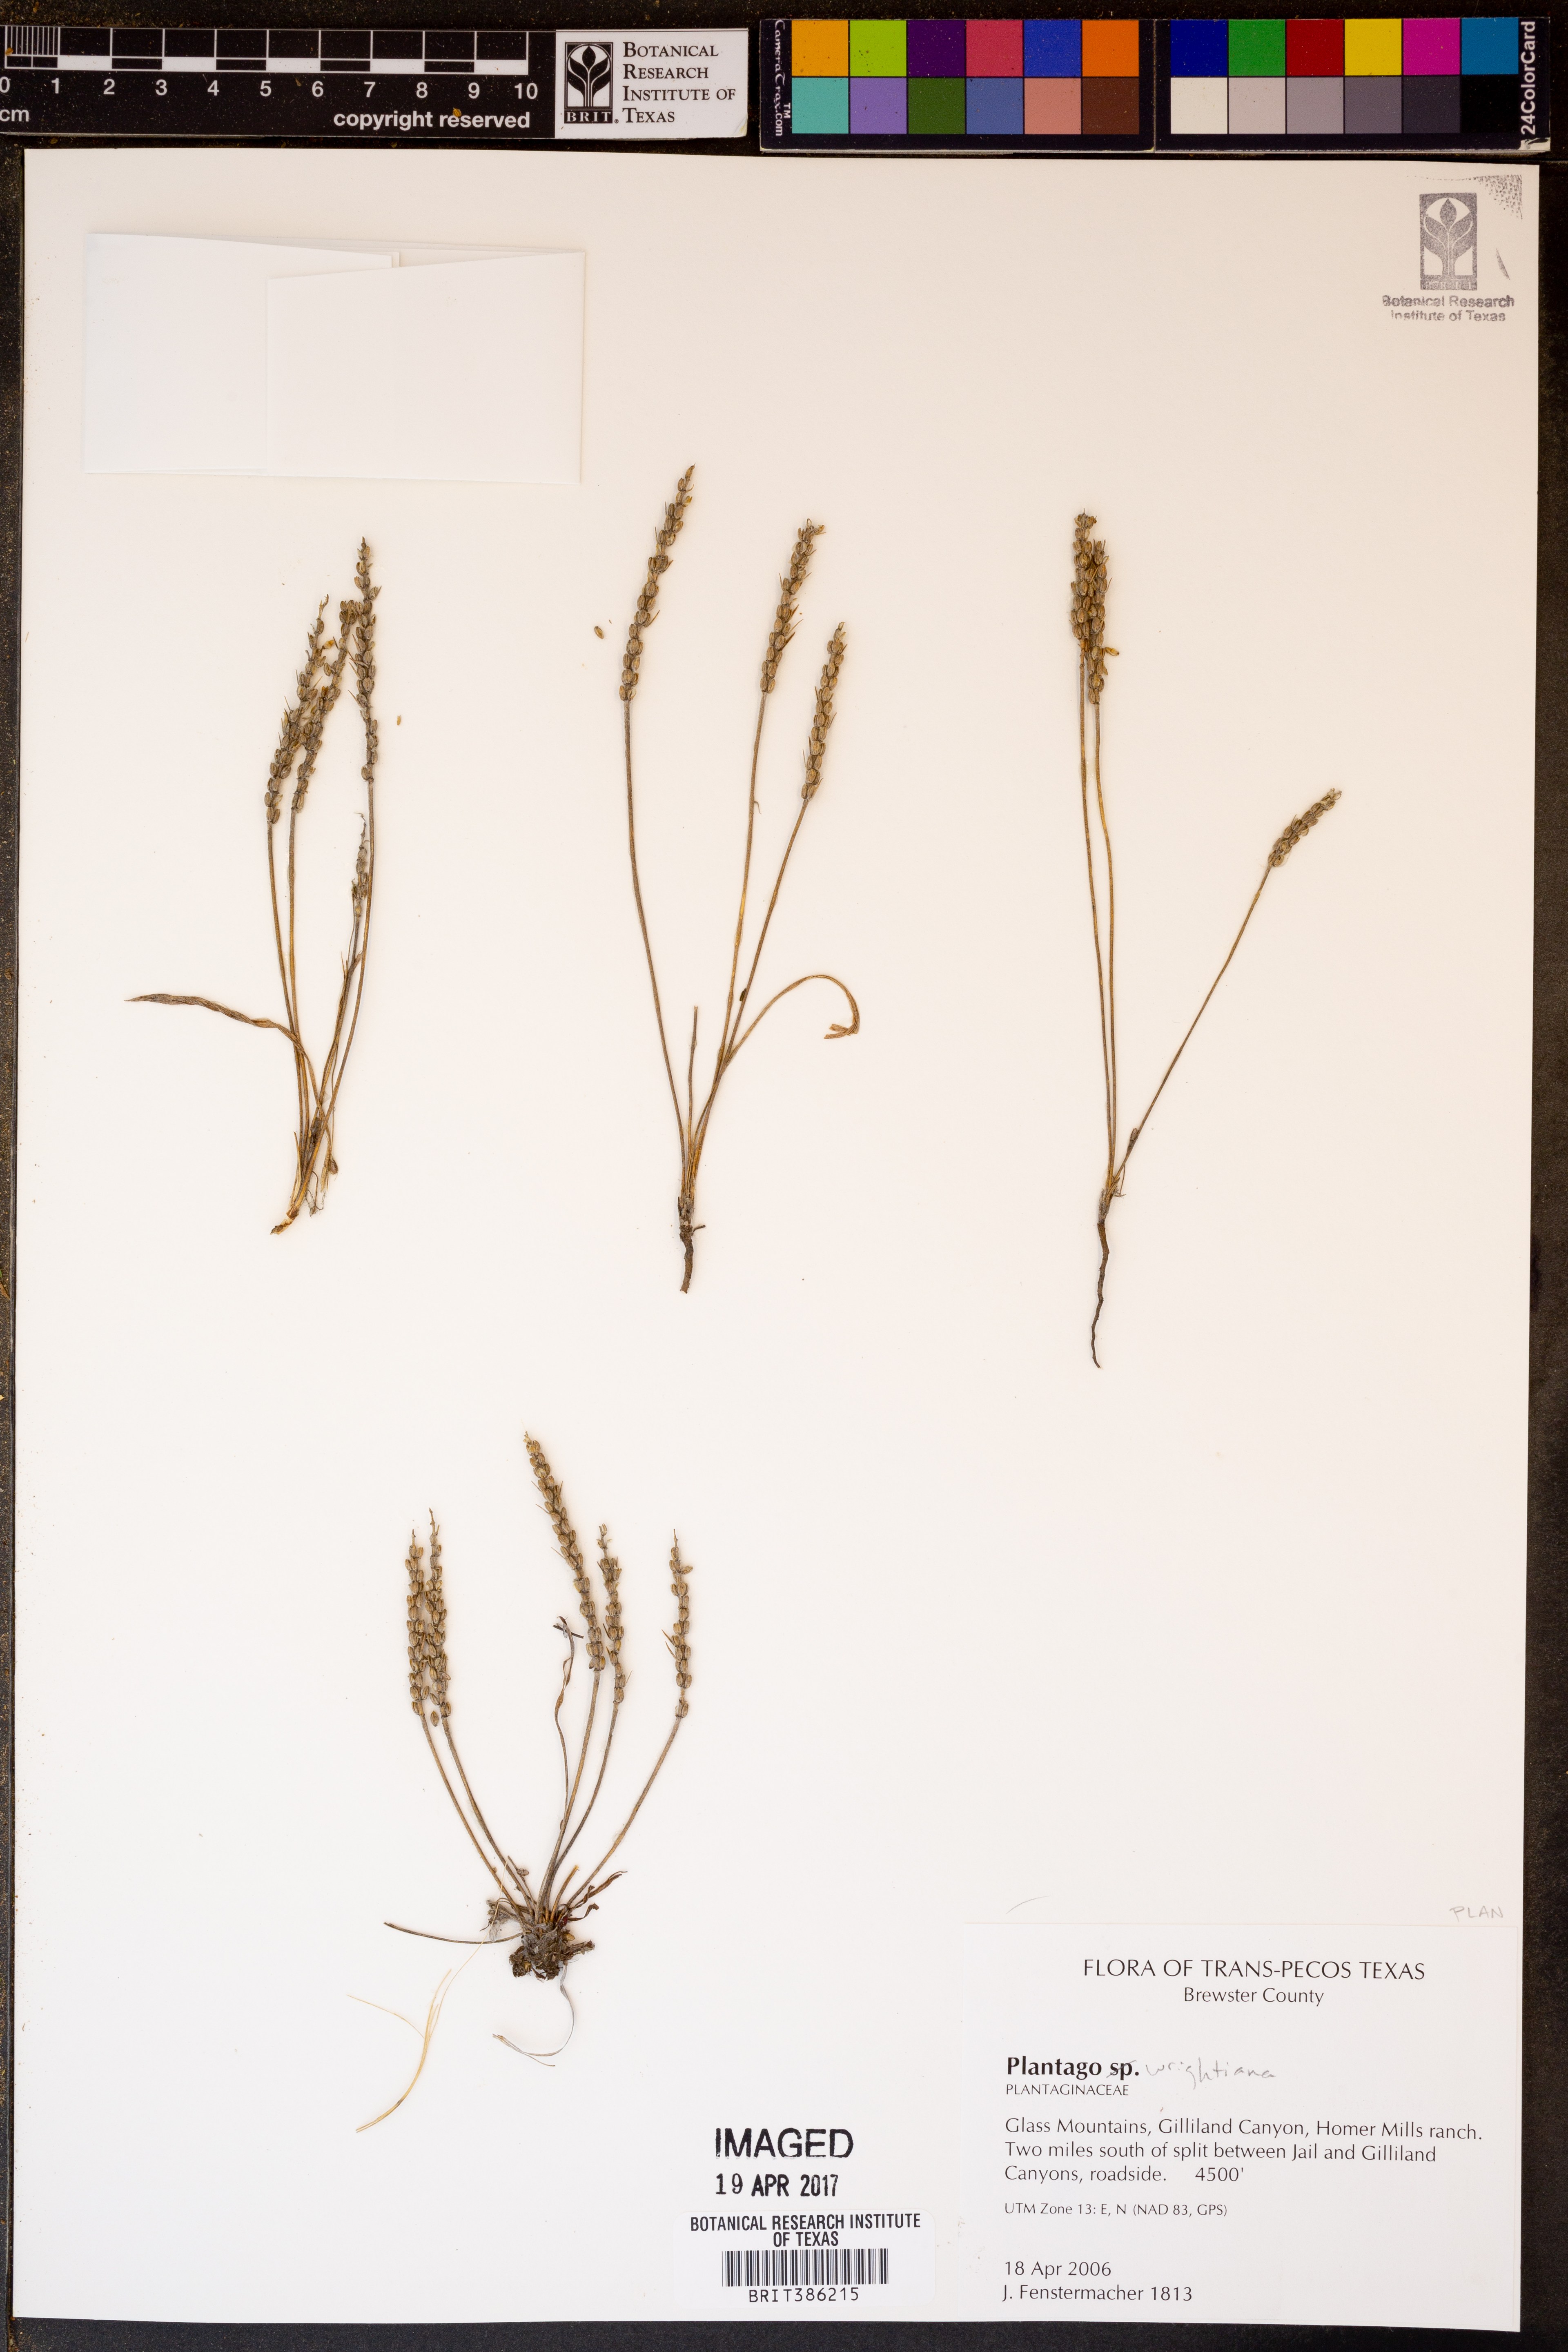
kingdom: Plantae
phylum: Tracheophyta
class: Magnoliopsida
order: Lamiales
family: Plantaginaceae
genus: Plantago
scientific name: Plantago wrightiana
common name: Wright's plantain
